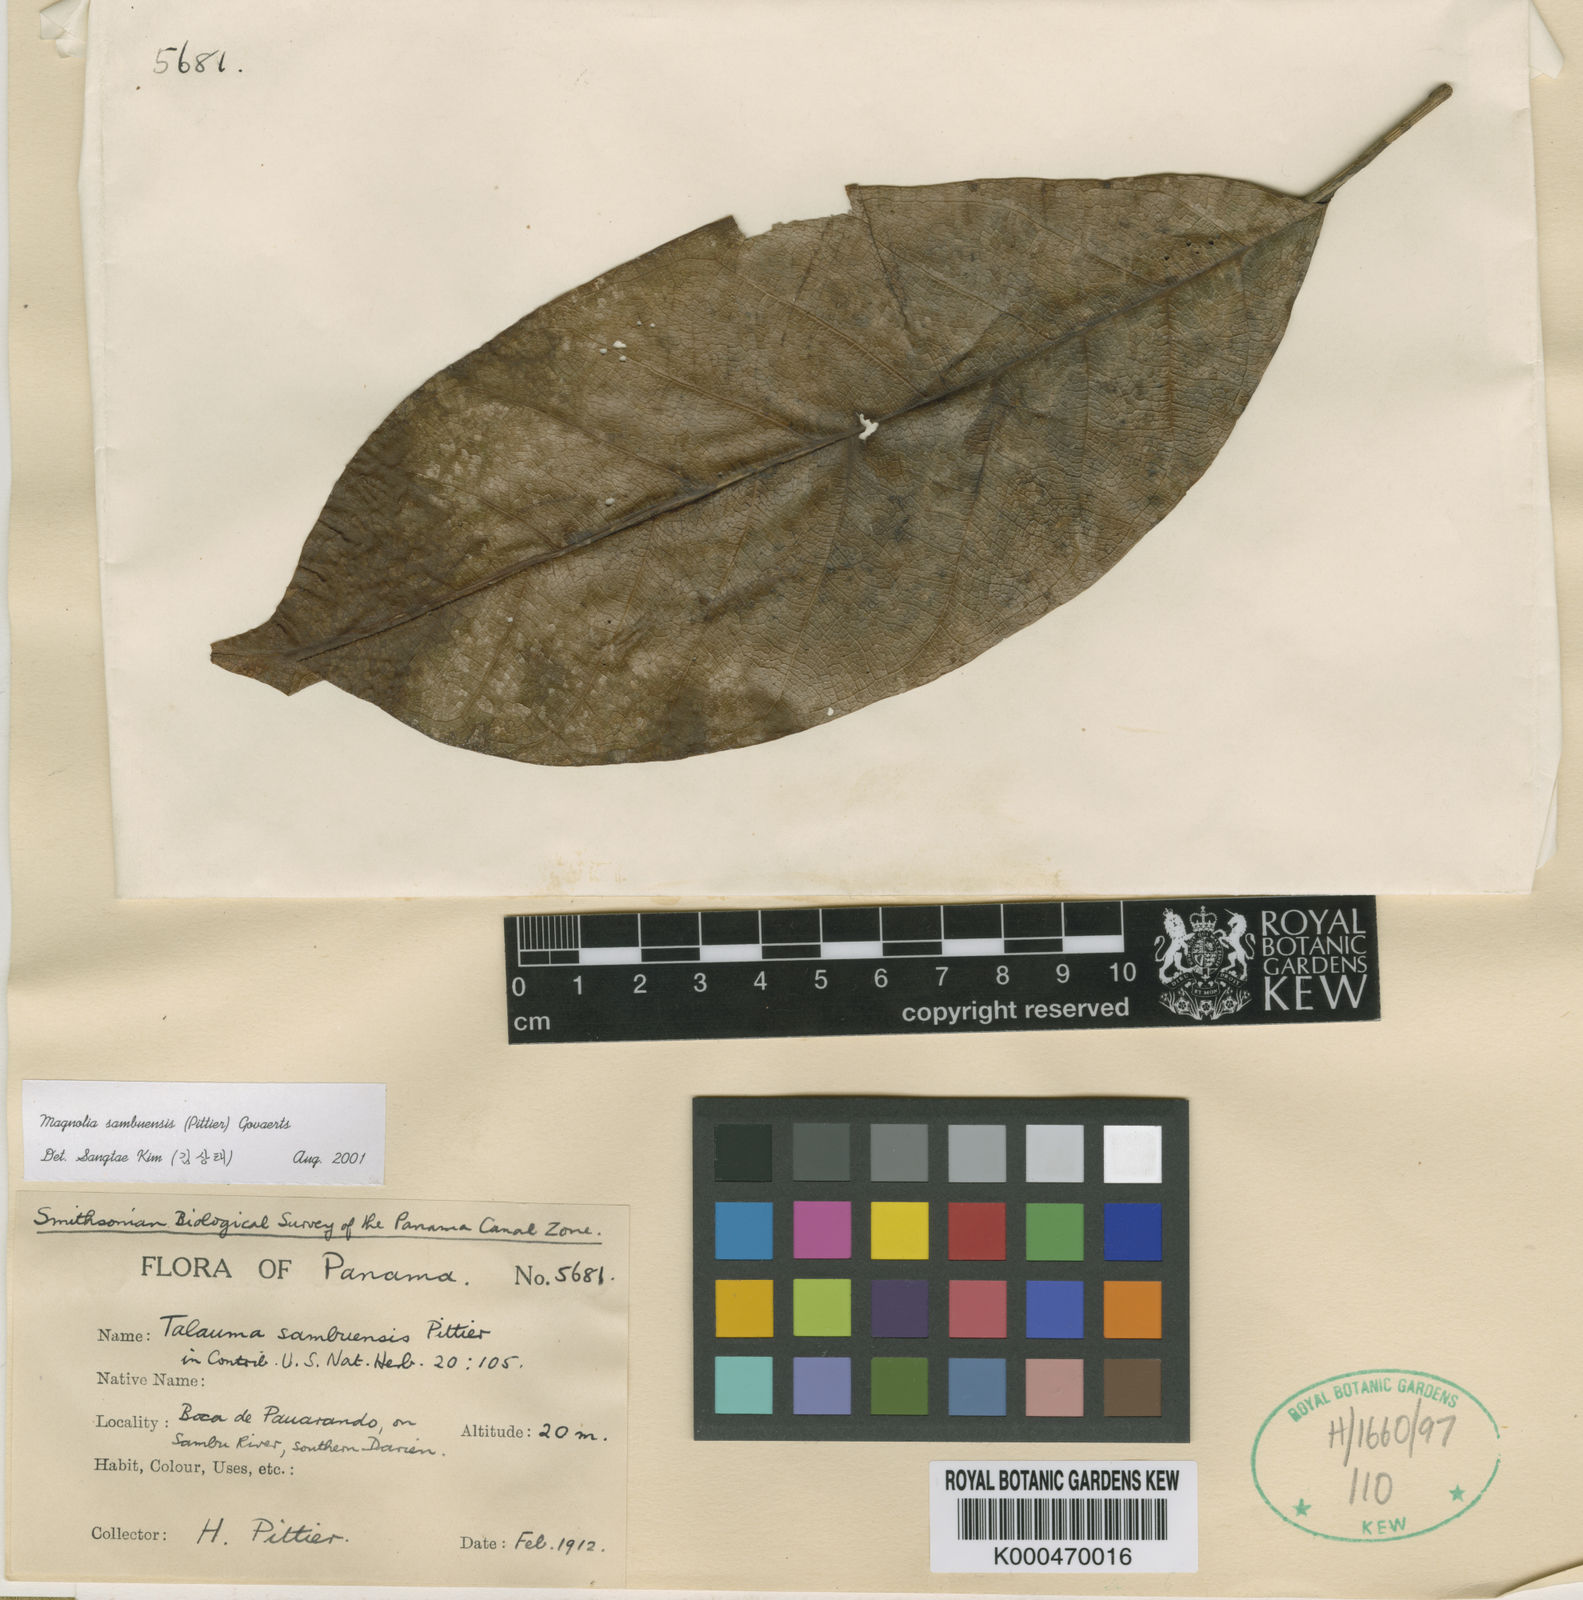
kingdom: Plantae
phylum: Tracheophyta
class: Magnoliopsida
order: Magnoliales
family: Magnoliaceae
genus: Magnolia
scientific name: Magnolia sambuensis
